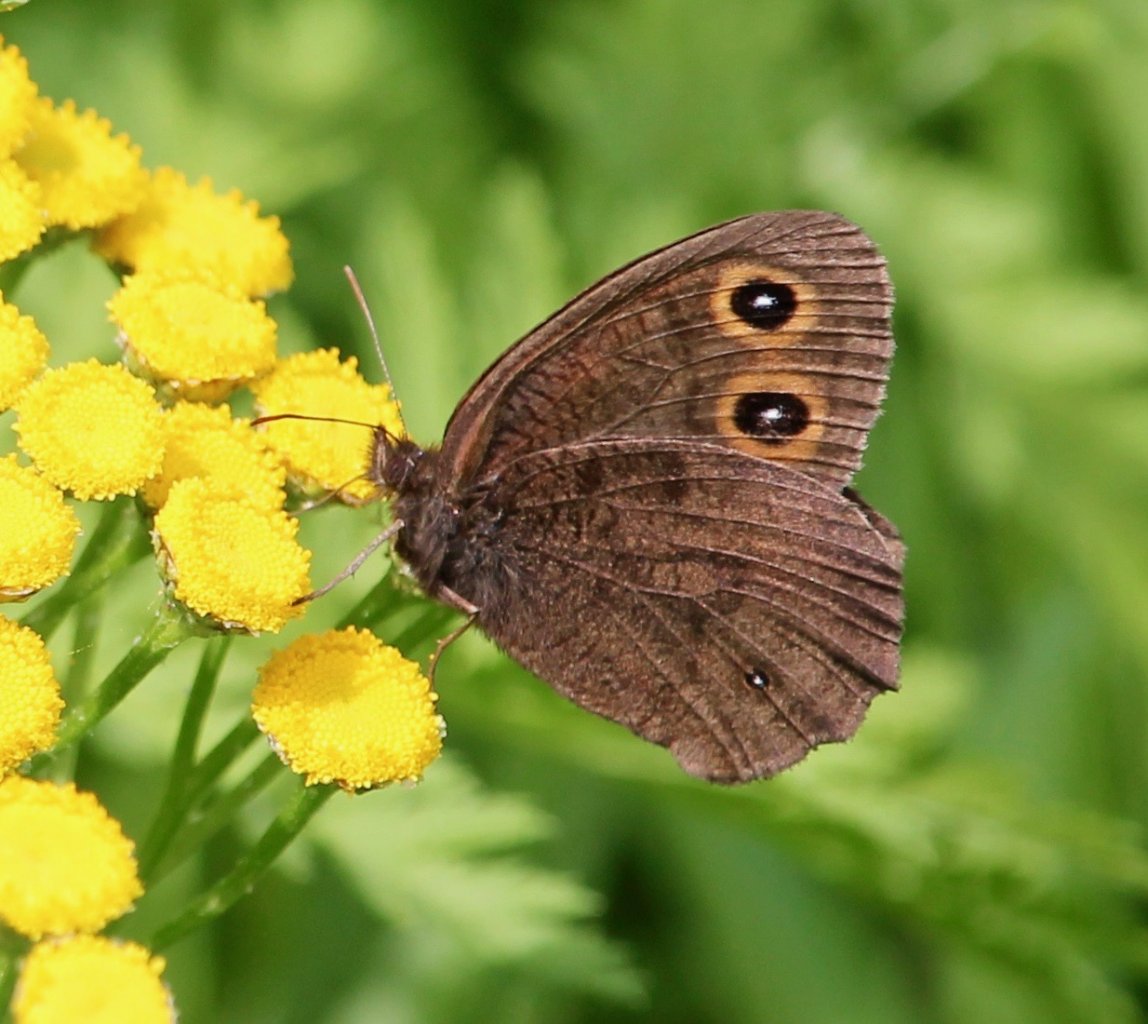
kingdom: Animalia
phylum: Arthropoda
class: Insecta
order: Lepidoptera
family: Nymphalidae
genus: Cercyonis
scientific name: Cercyonis pegala
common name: Common Wood-Nymph
